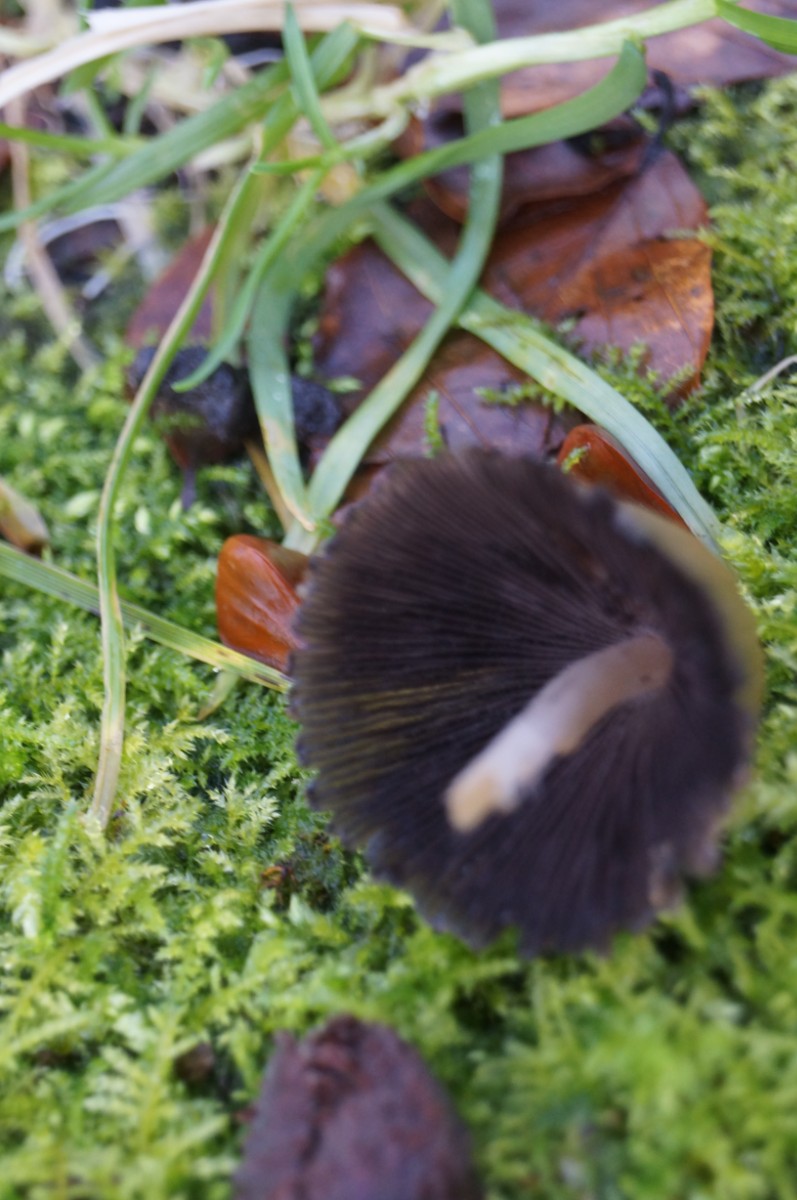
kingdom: Fungi
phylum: Basidiomycota
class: Agaricomycetes
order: Agaricales
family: Psathyrellaceae
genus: Coprinellus
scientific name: Coprinellus micaceus
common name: glimmer-blækhat
